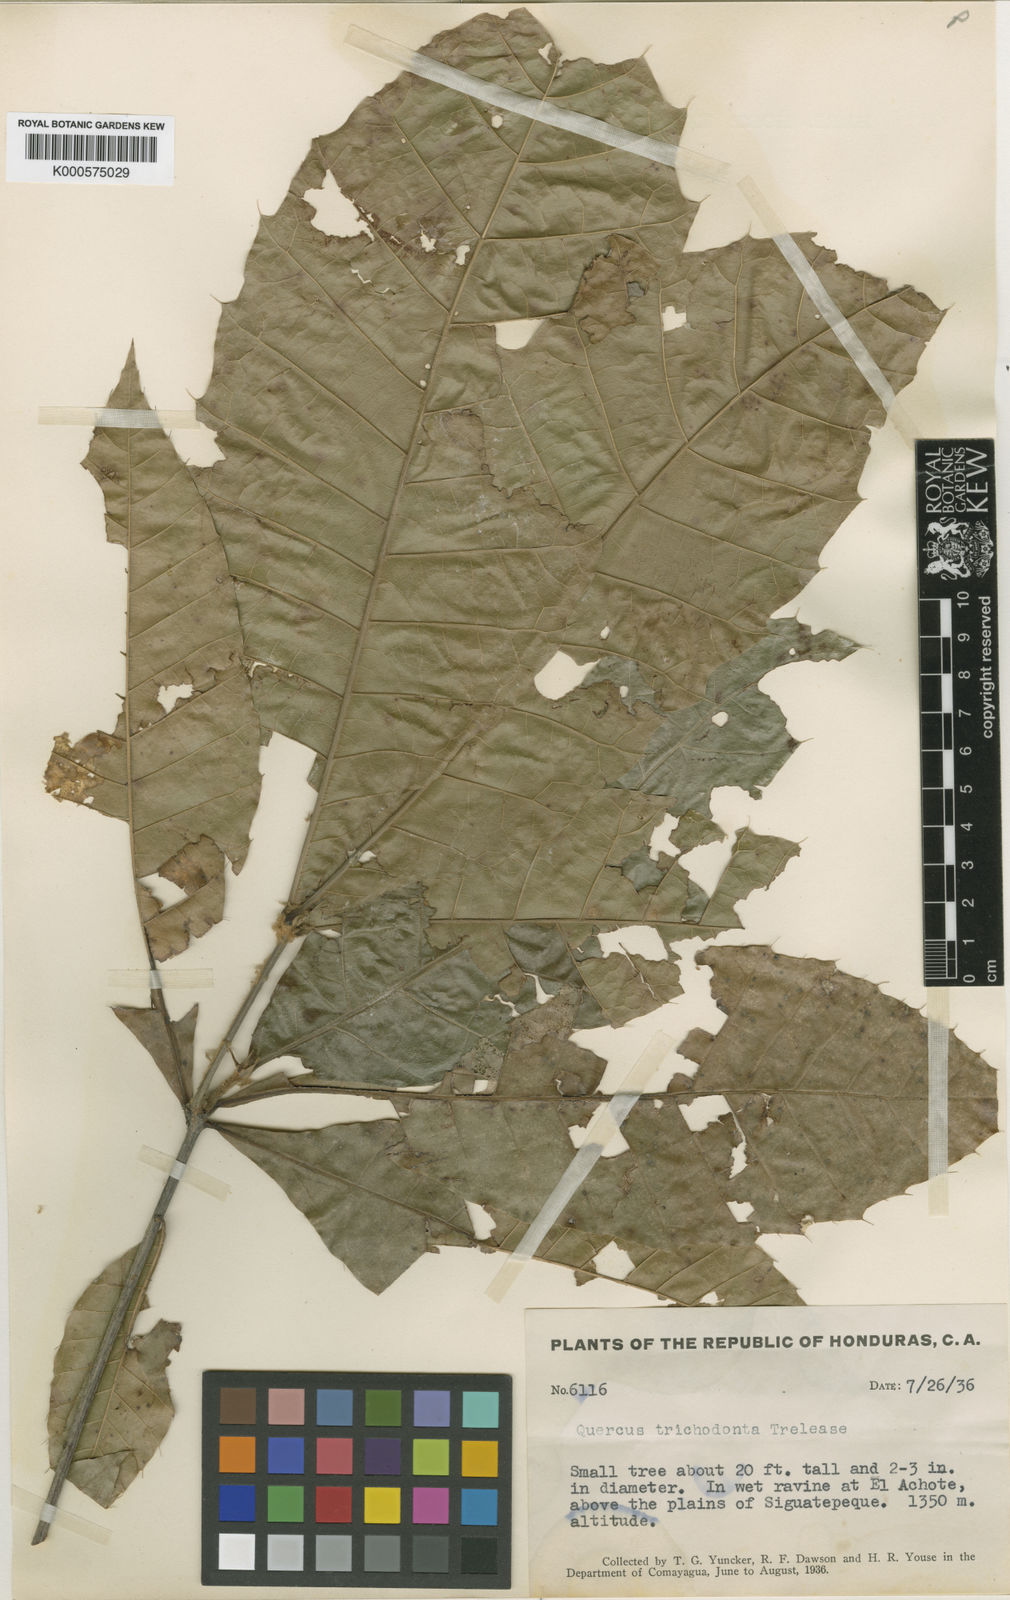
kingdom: Plantae
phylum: Tracheophyta
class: Magnoliopsida
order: Fagales
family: Fagaceae
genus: Quercus
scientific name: Quercus skinneri
